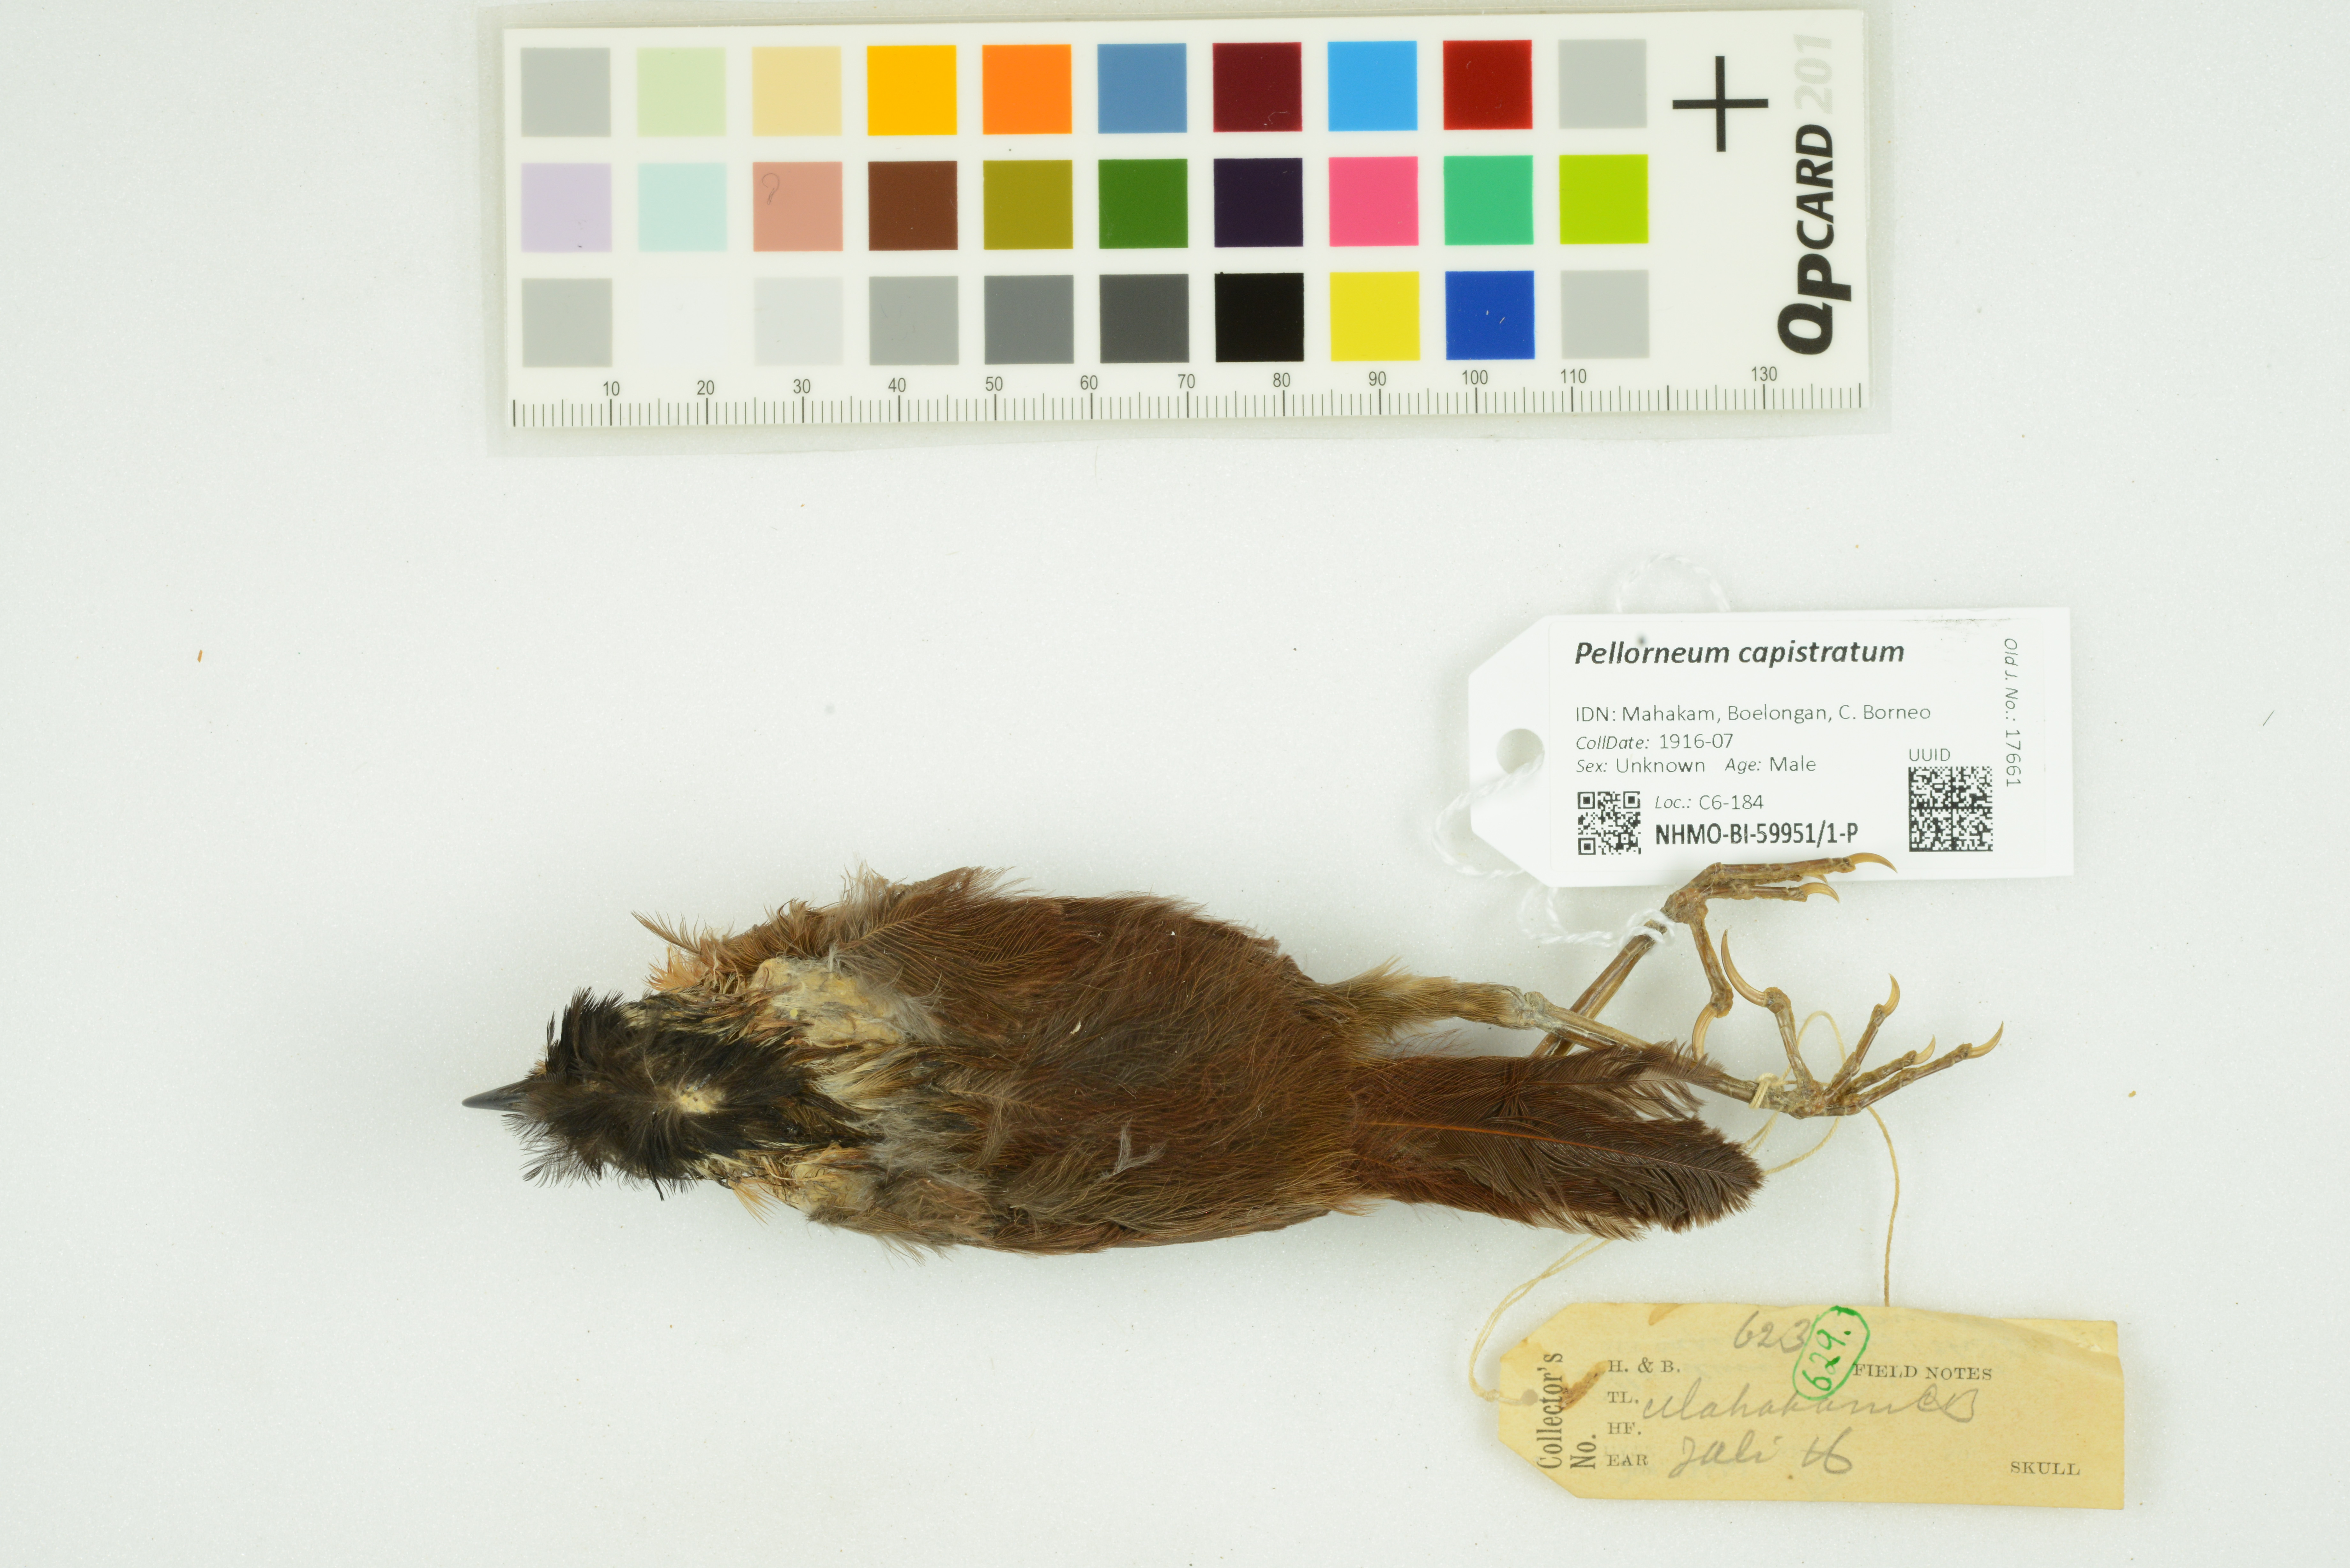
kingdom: Animalia
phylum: Chordata
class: Aves
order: Passeriformes
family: Pellorneidae
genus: Pellorneum
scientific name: Pellorneum capistratum
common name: Black-capped babbler
